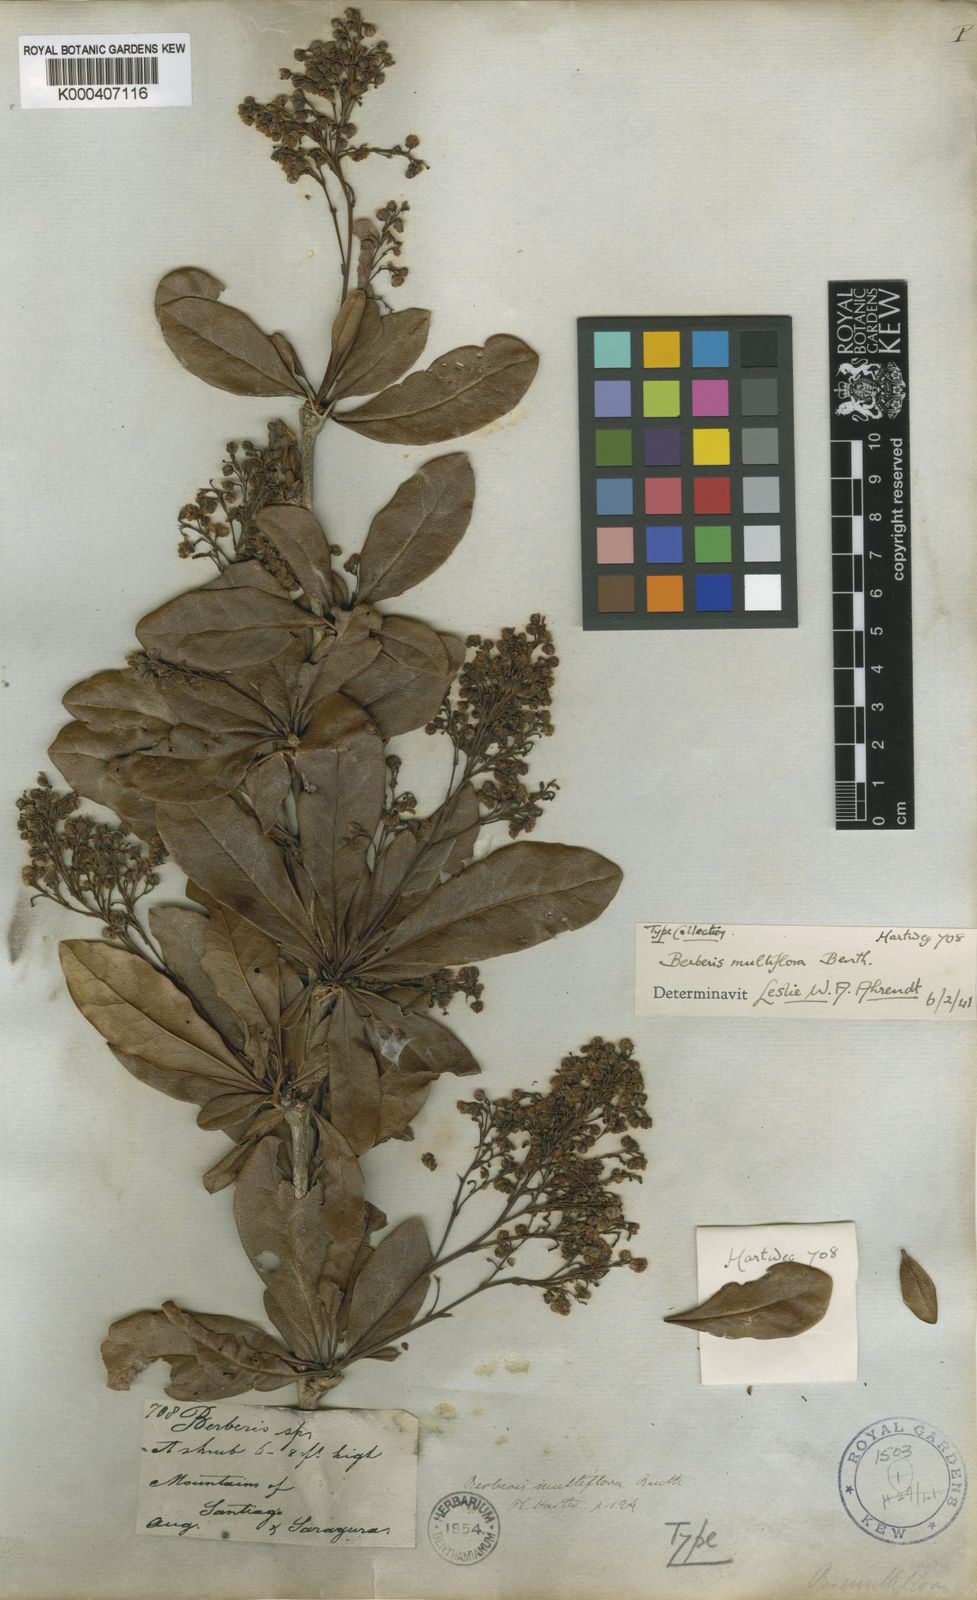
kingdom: Plantae
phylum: Tracheophyta
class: Magnoliopsida
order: Ranunculales
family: Berberidaceae
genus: Berberis
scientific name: Berberis multiflora
